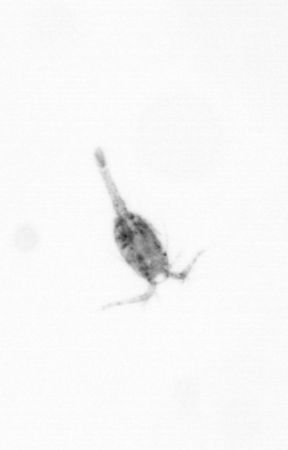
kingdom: Animalia
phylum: Arthropoda
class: Copepoda
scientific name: Copepoda
